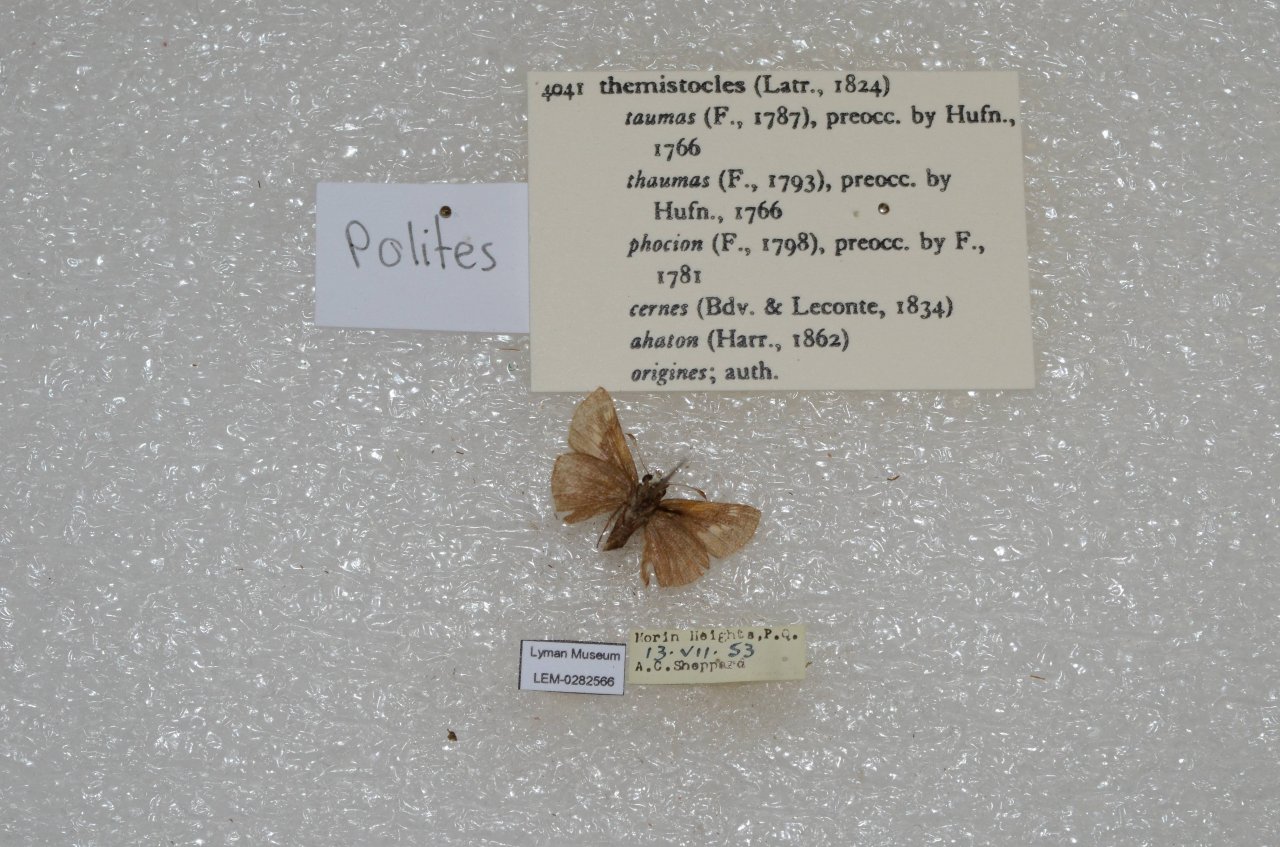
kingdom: Animalia
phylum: Arthropoda
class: Insecta
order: Lepidoptera
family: Hesperiidae
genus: Polites
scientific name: Polites themistocles
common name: Tawny-edged Skipper
